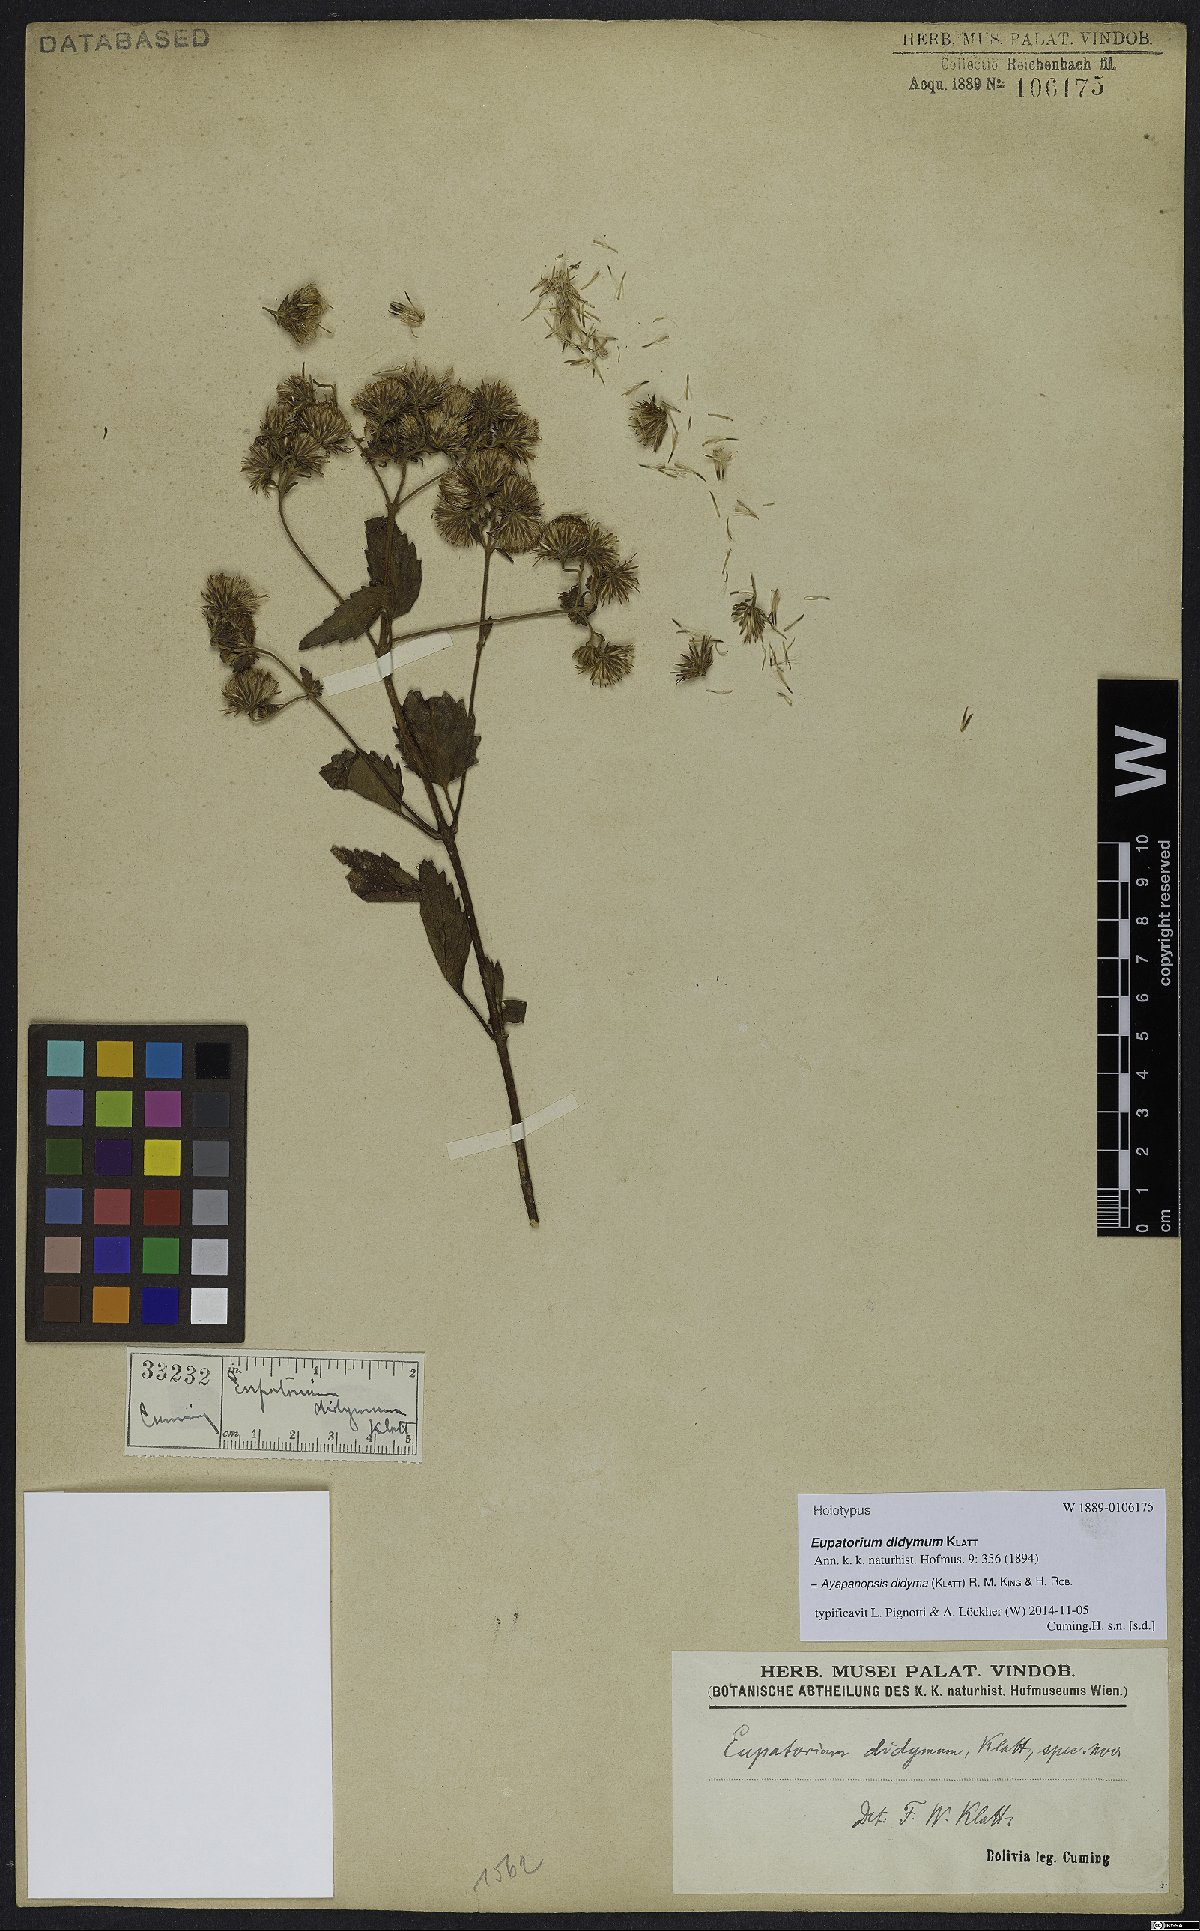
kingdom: Plantae
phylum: Tracheophyta
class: Magnoliopsida
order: Asterales
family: Asteraceae
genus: Heterocondylus
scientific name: Heterocondylus didymus
